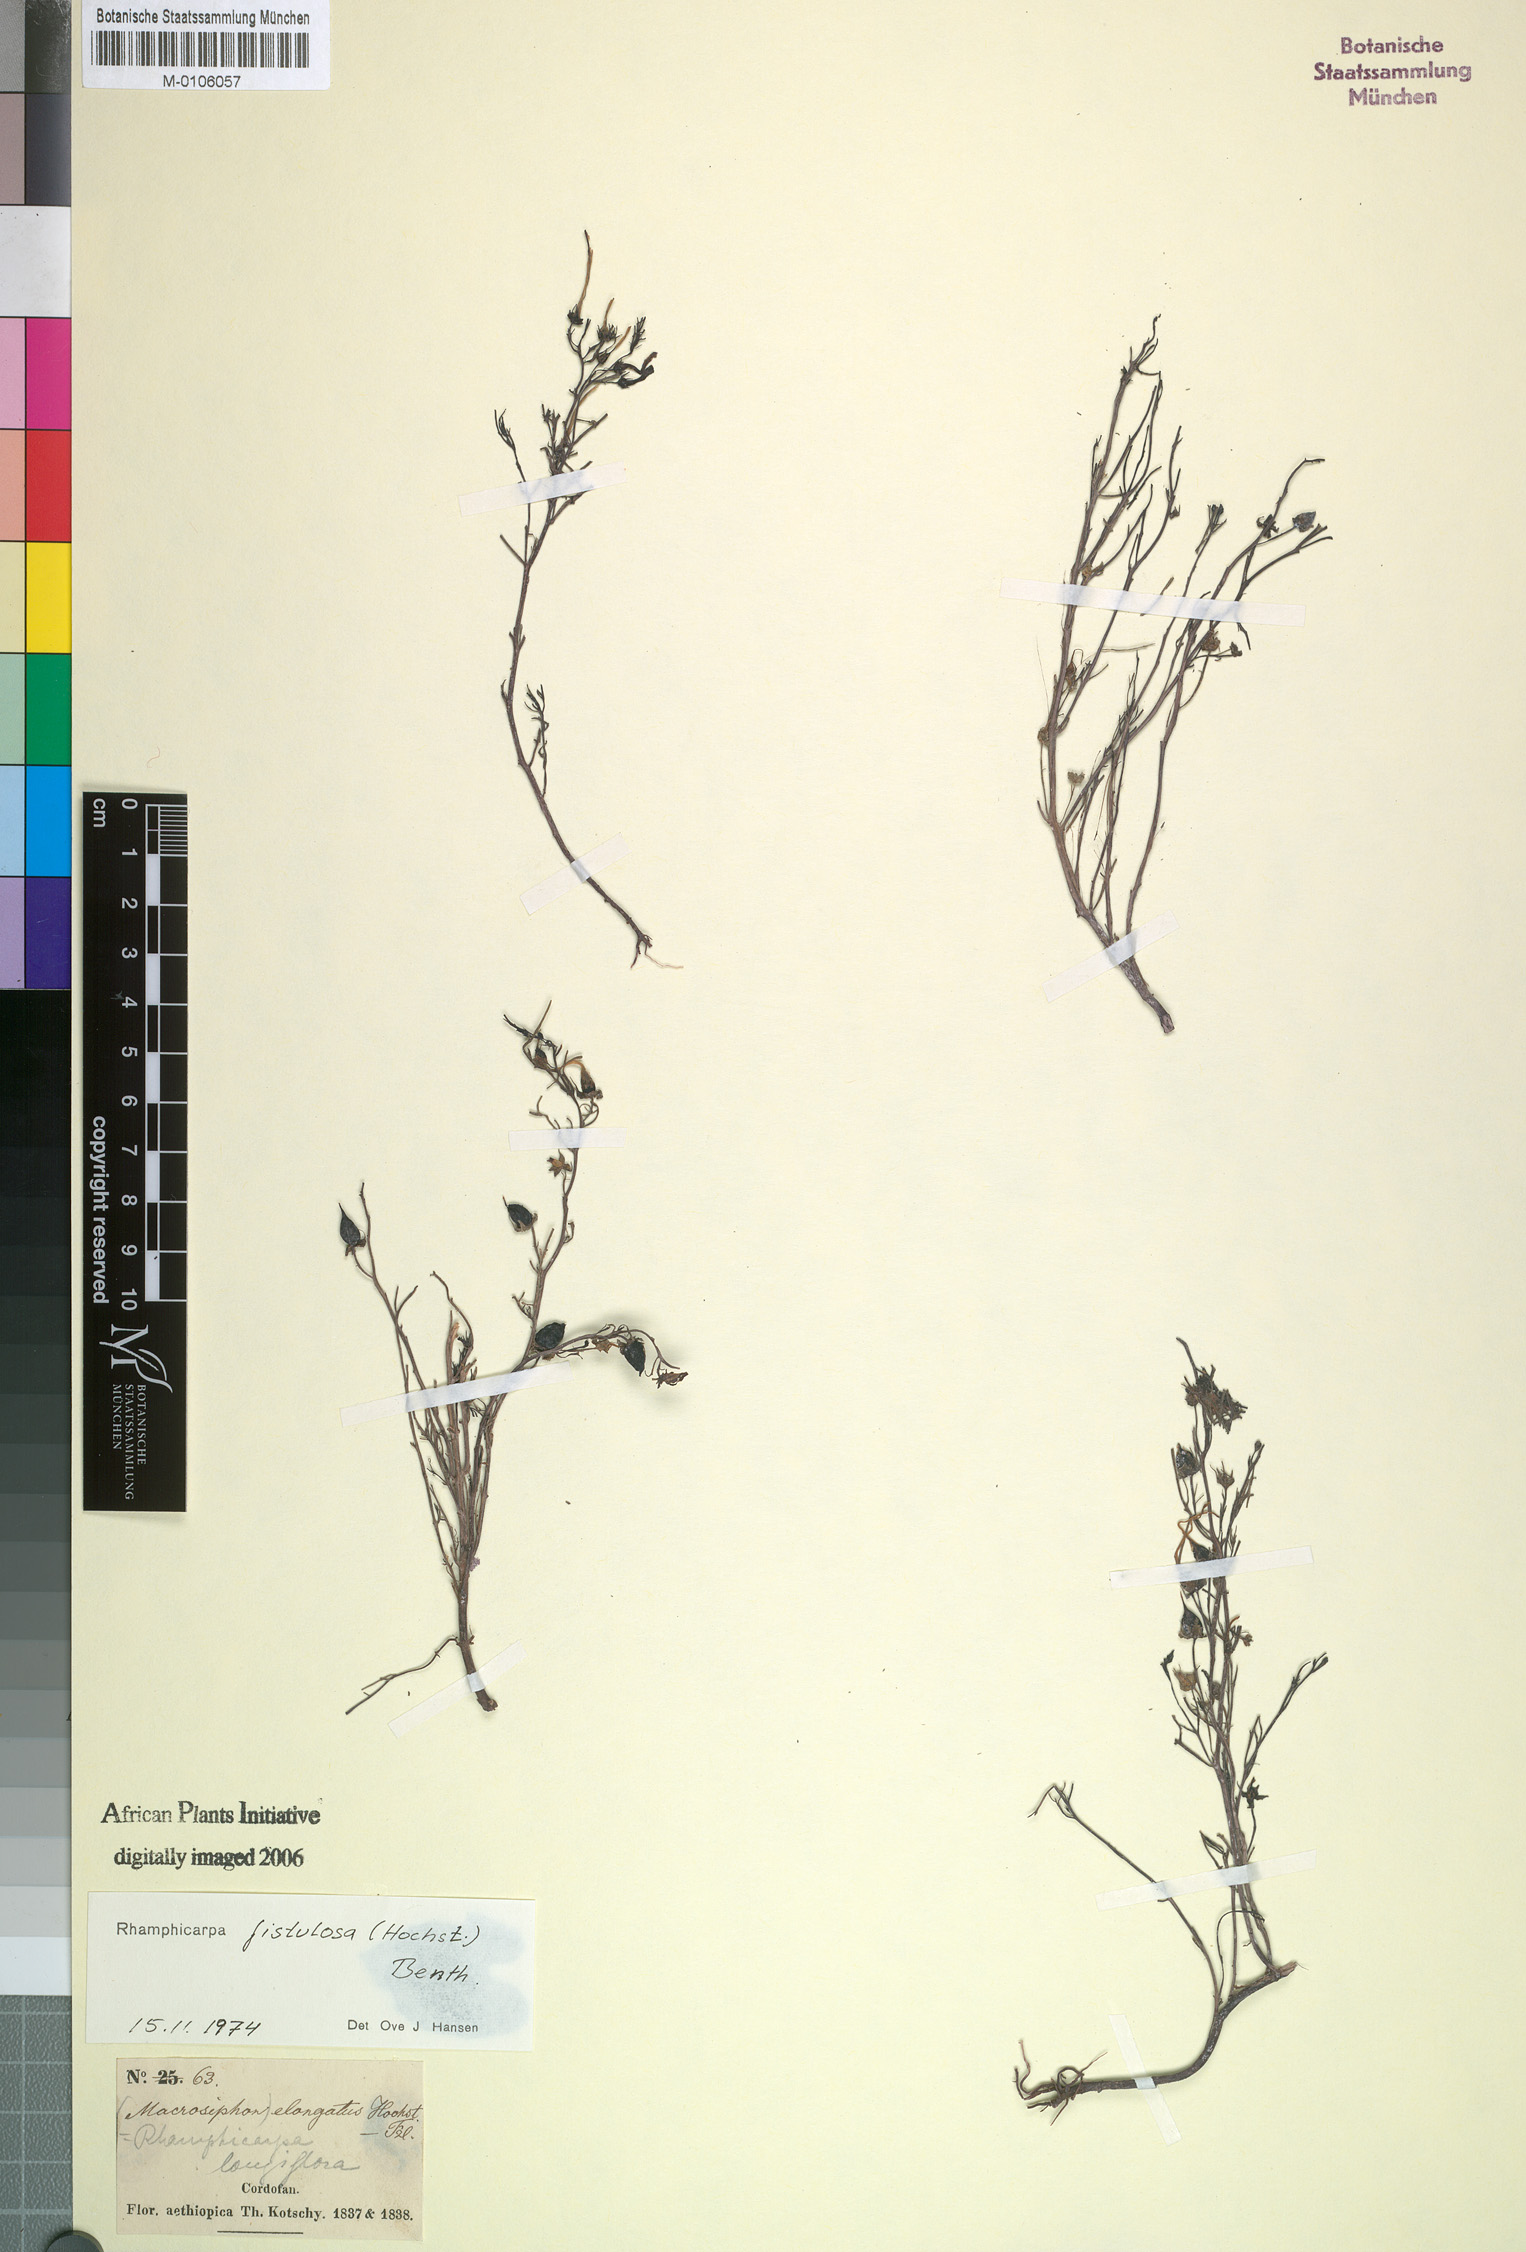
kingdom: Plantae
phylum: Tracheophyta
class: Magnoliopsida
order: Lamiales
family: Orobanchaceae
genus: Rhamphicarpa
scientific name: Rhamphicarpa fistulosa
